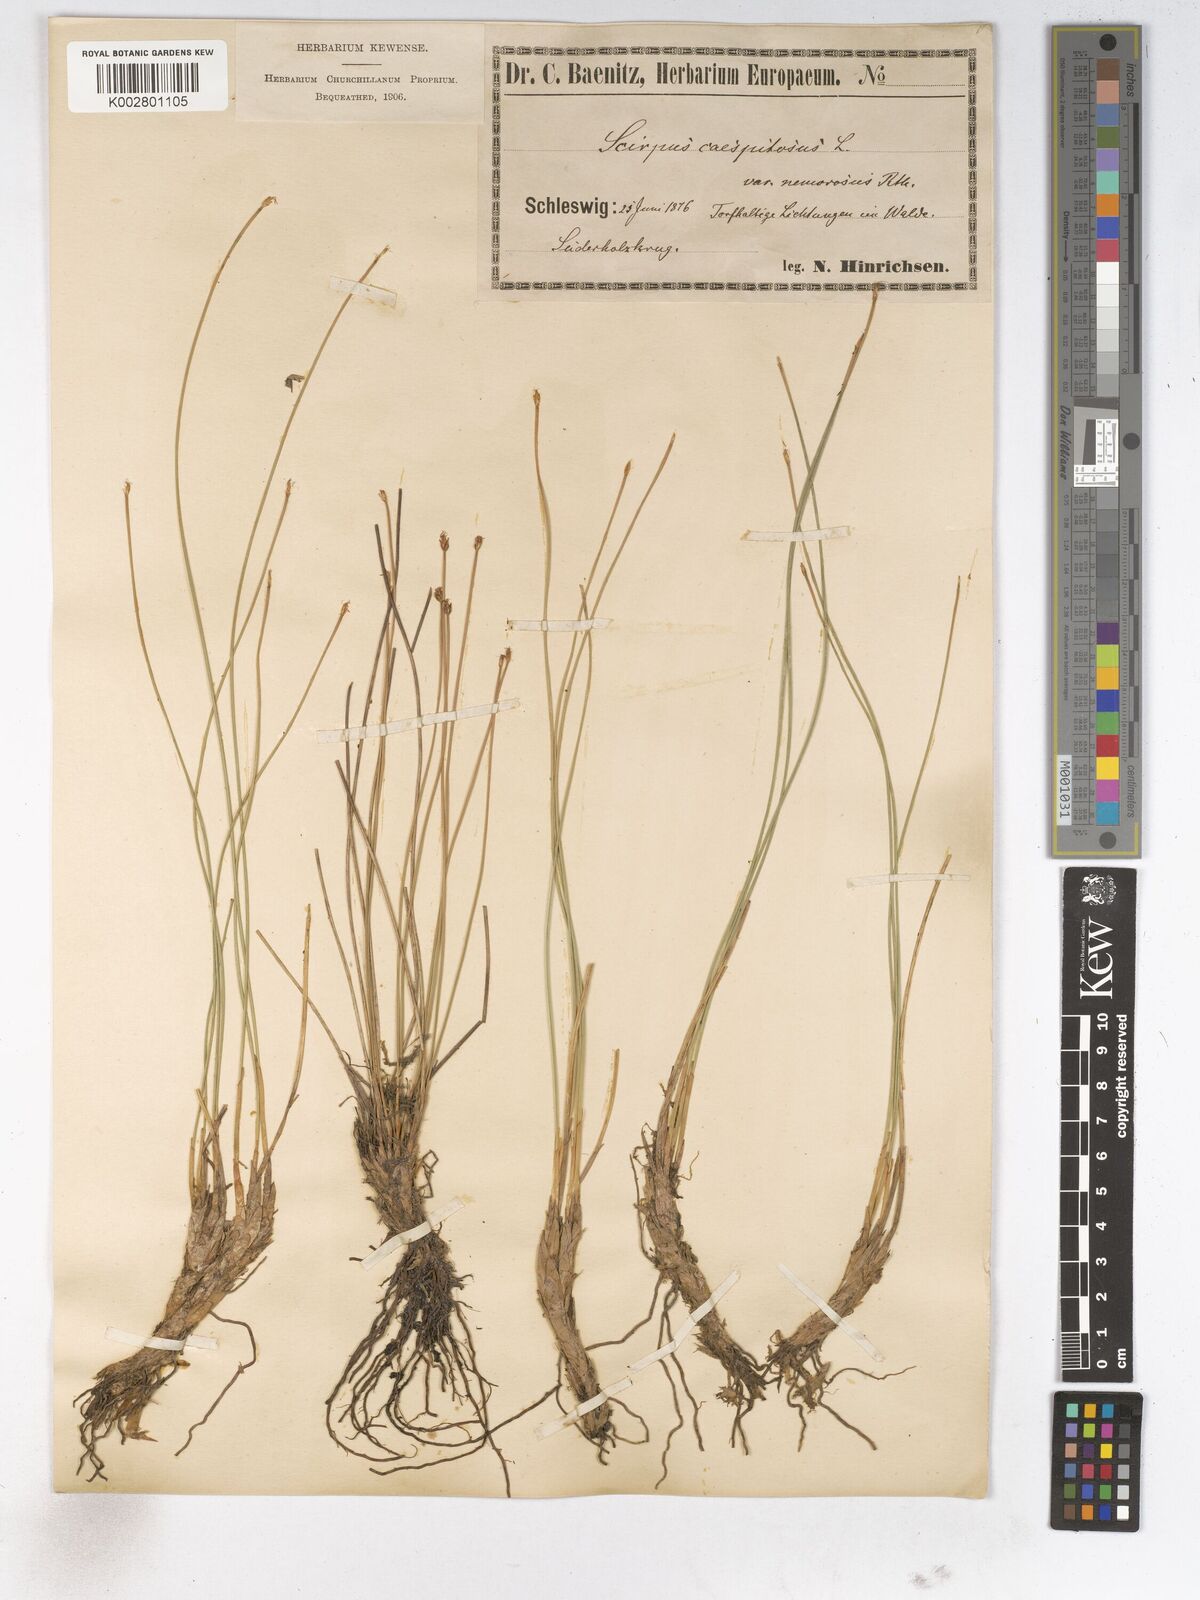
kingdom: Plantae
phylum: Tracheophyta
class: Liliopsida
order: Poales
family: Cyperaceae
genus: Trichophorum
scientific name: Trichophorum cespitosum
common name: Cespitose bulrush
